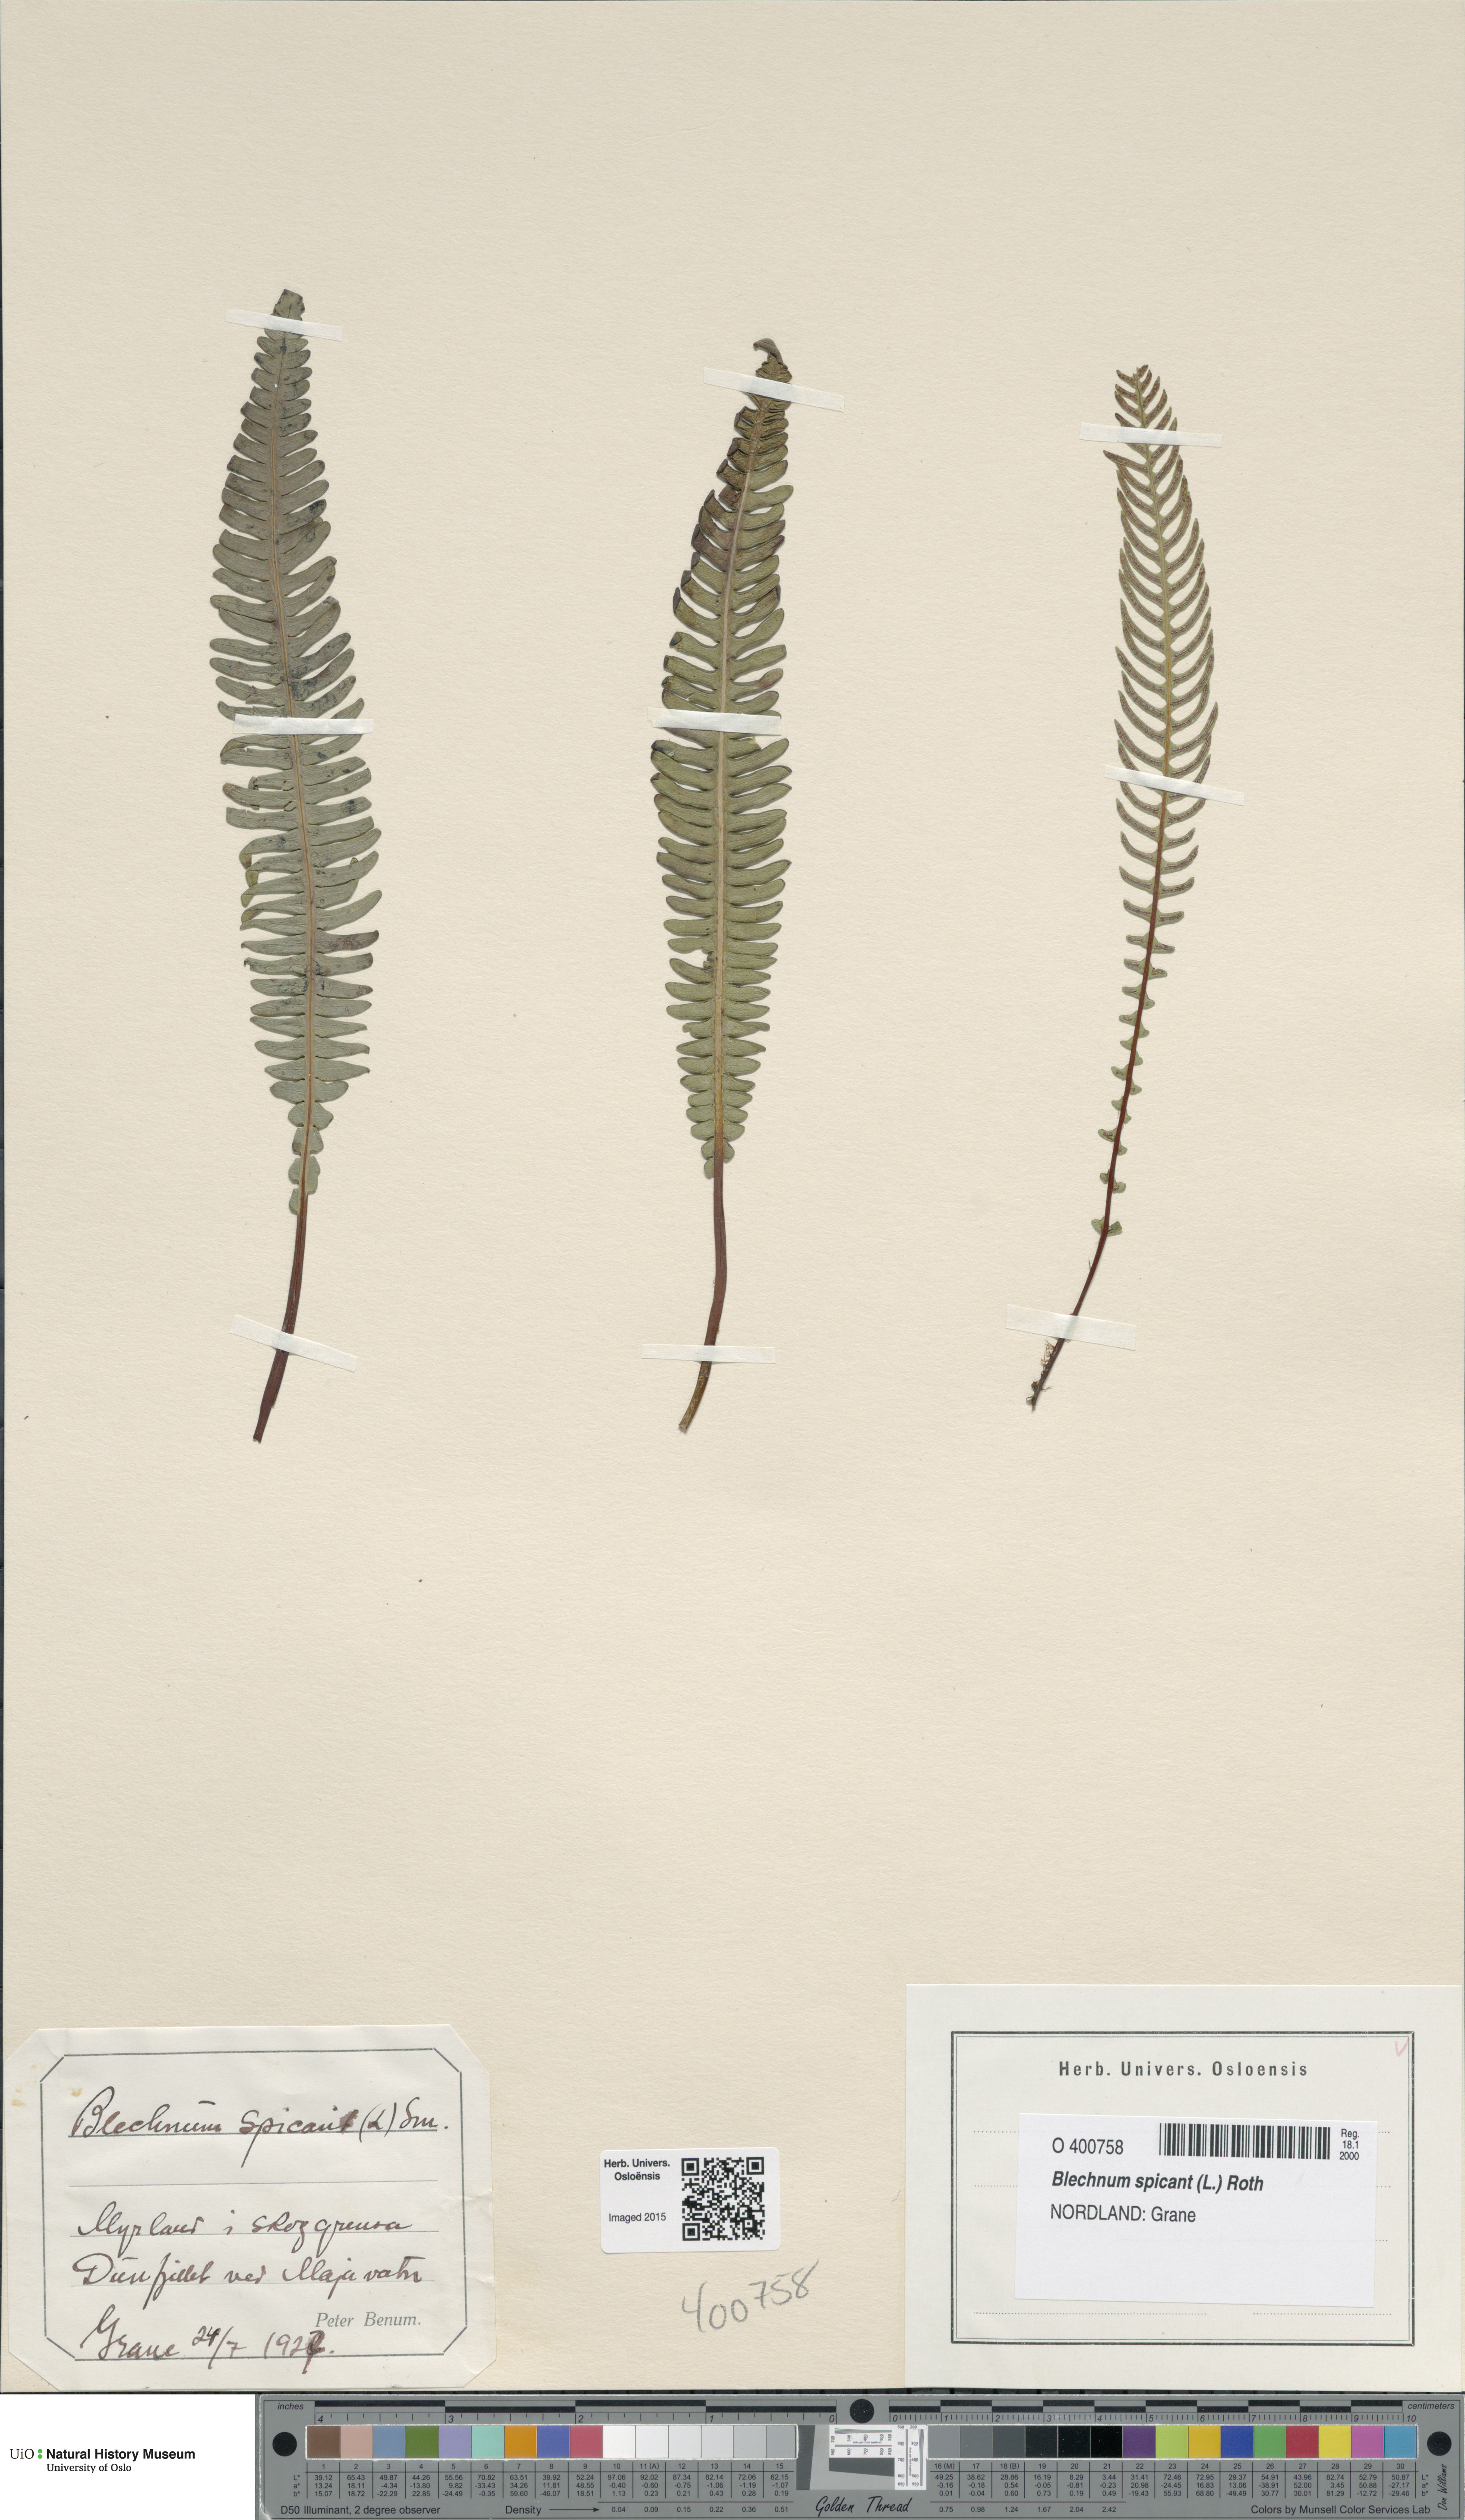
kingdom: Plantae
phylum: Tracheophyta
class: Polypodiopsida
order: Polypodiales
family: Blechnaceae
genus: Struthiopteris
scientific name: Struthiopteris spicant
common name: Deer fern
